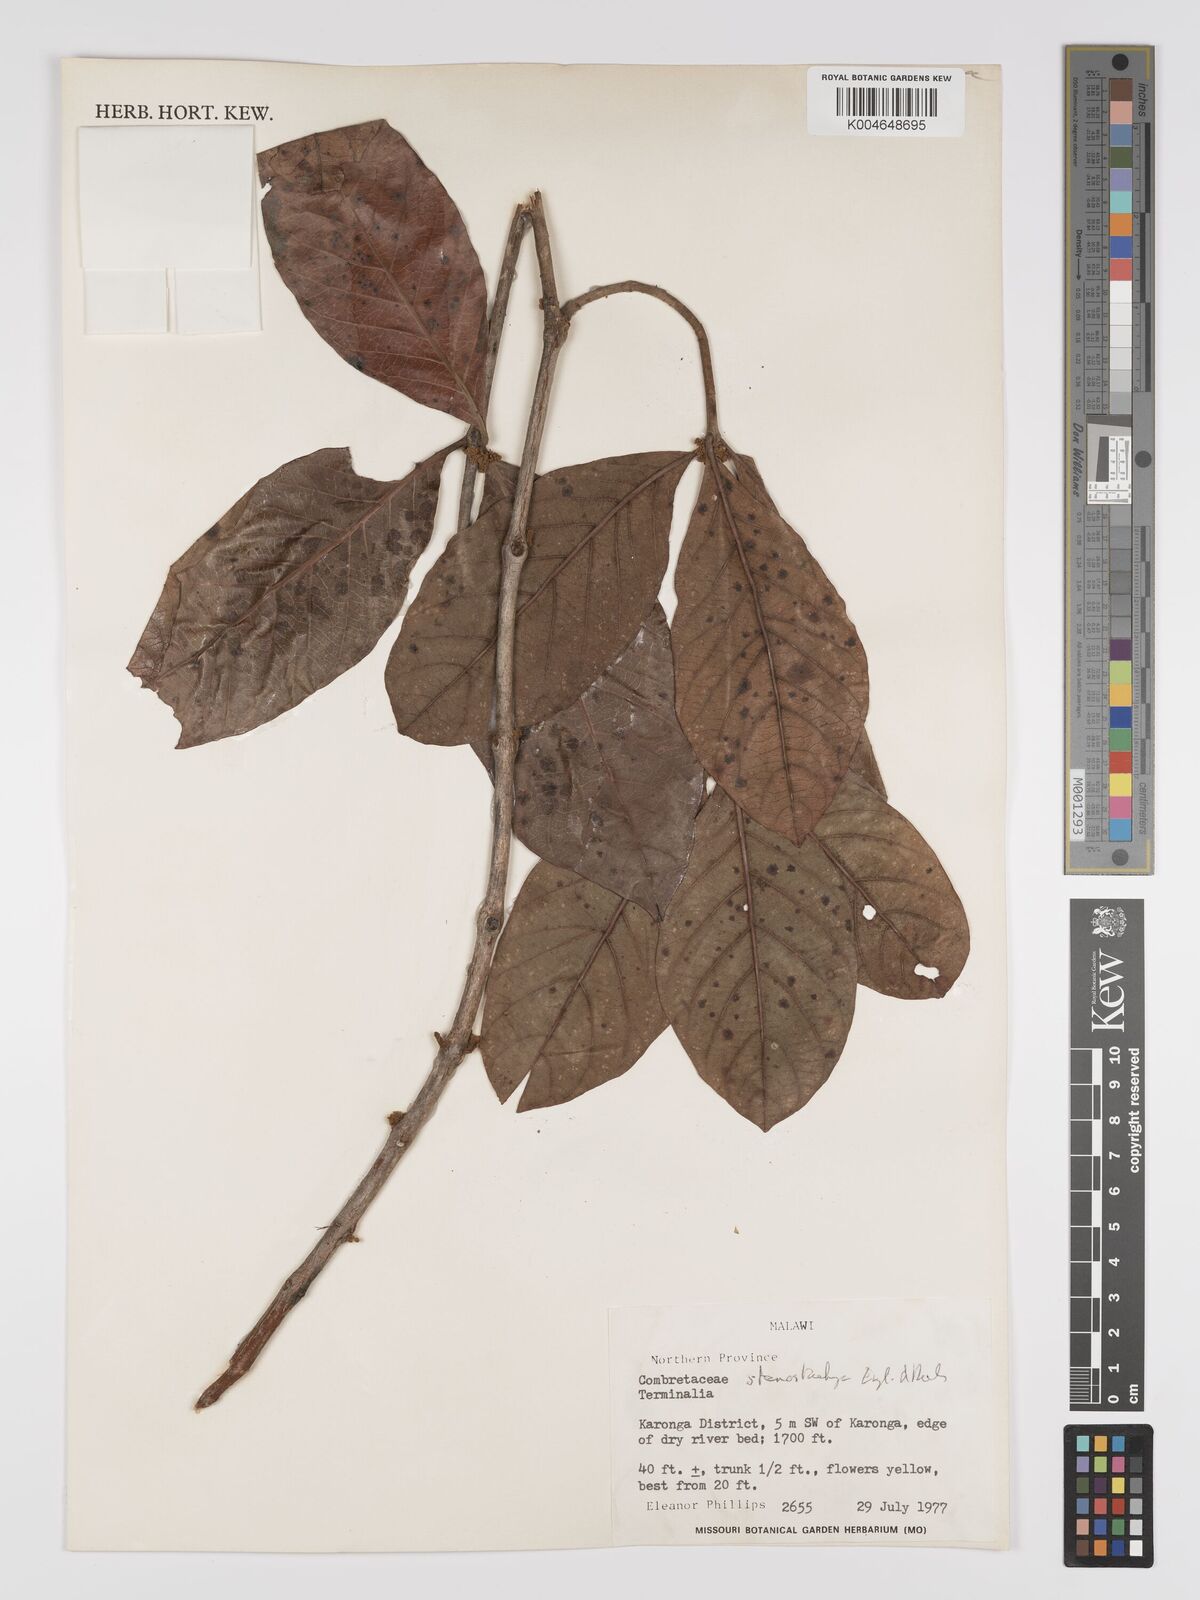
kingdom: Plantae
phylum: Tracheophyta
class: Magnoliopsida
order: Myrtales
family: Combretaceae
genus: Terminalia
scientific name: Terminalia stenostachya
